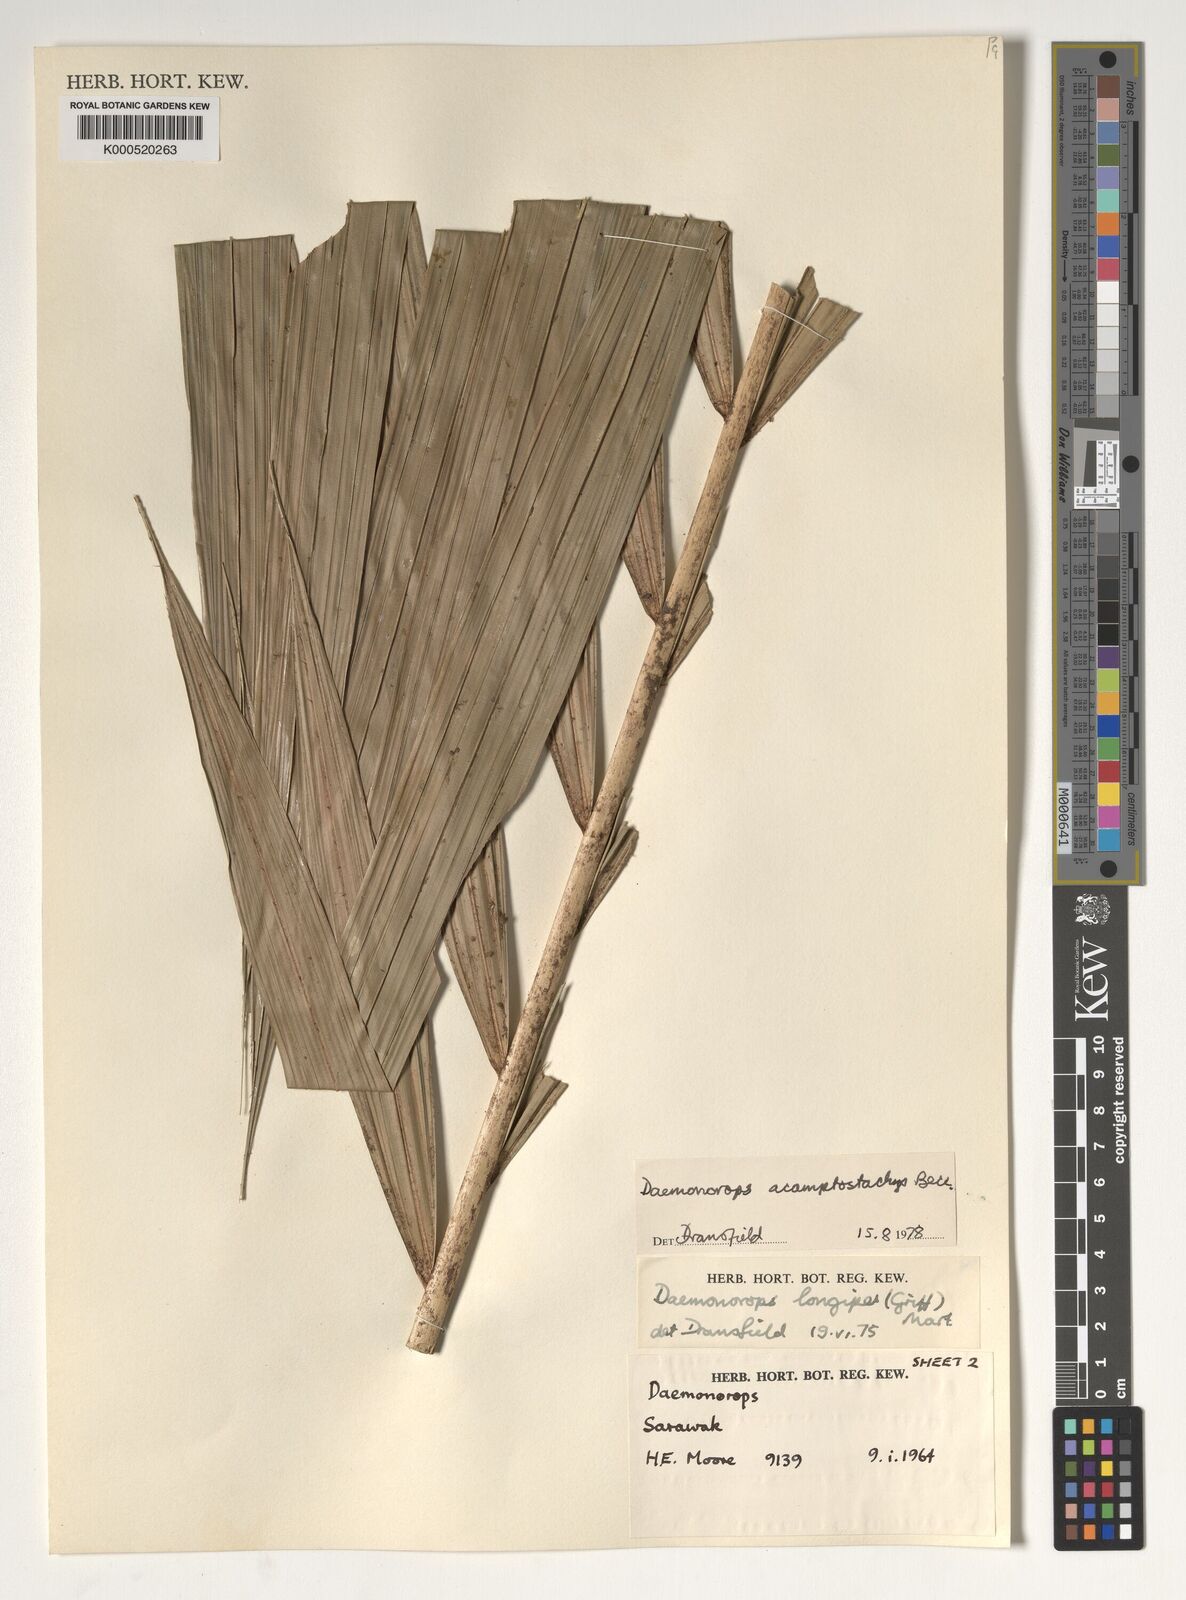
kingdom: Plantae
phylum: Tracheophyta
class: Liliopsida
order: Arecales
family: Arecaceae
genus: Calamus
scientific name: Calamus acamptostachys
